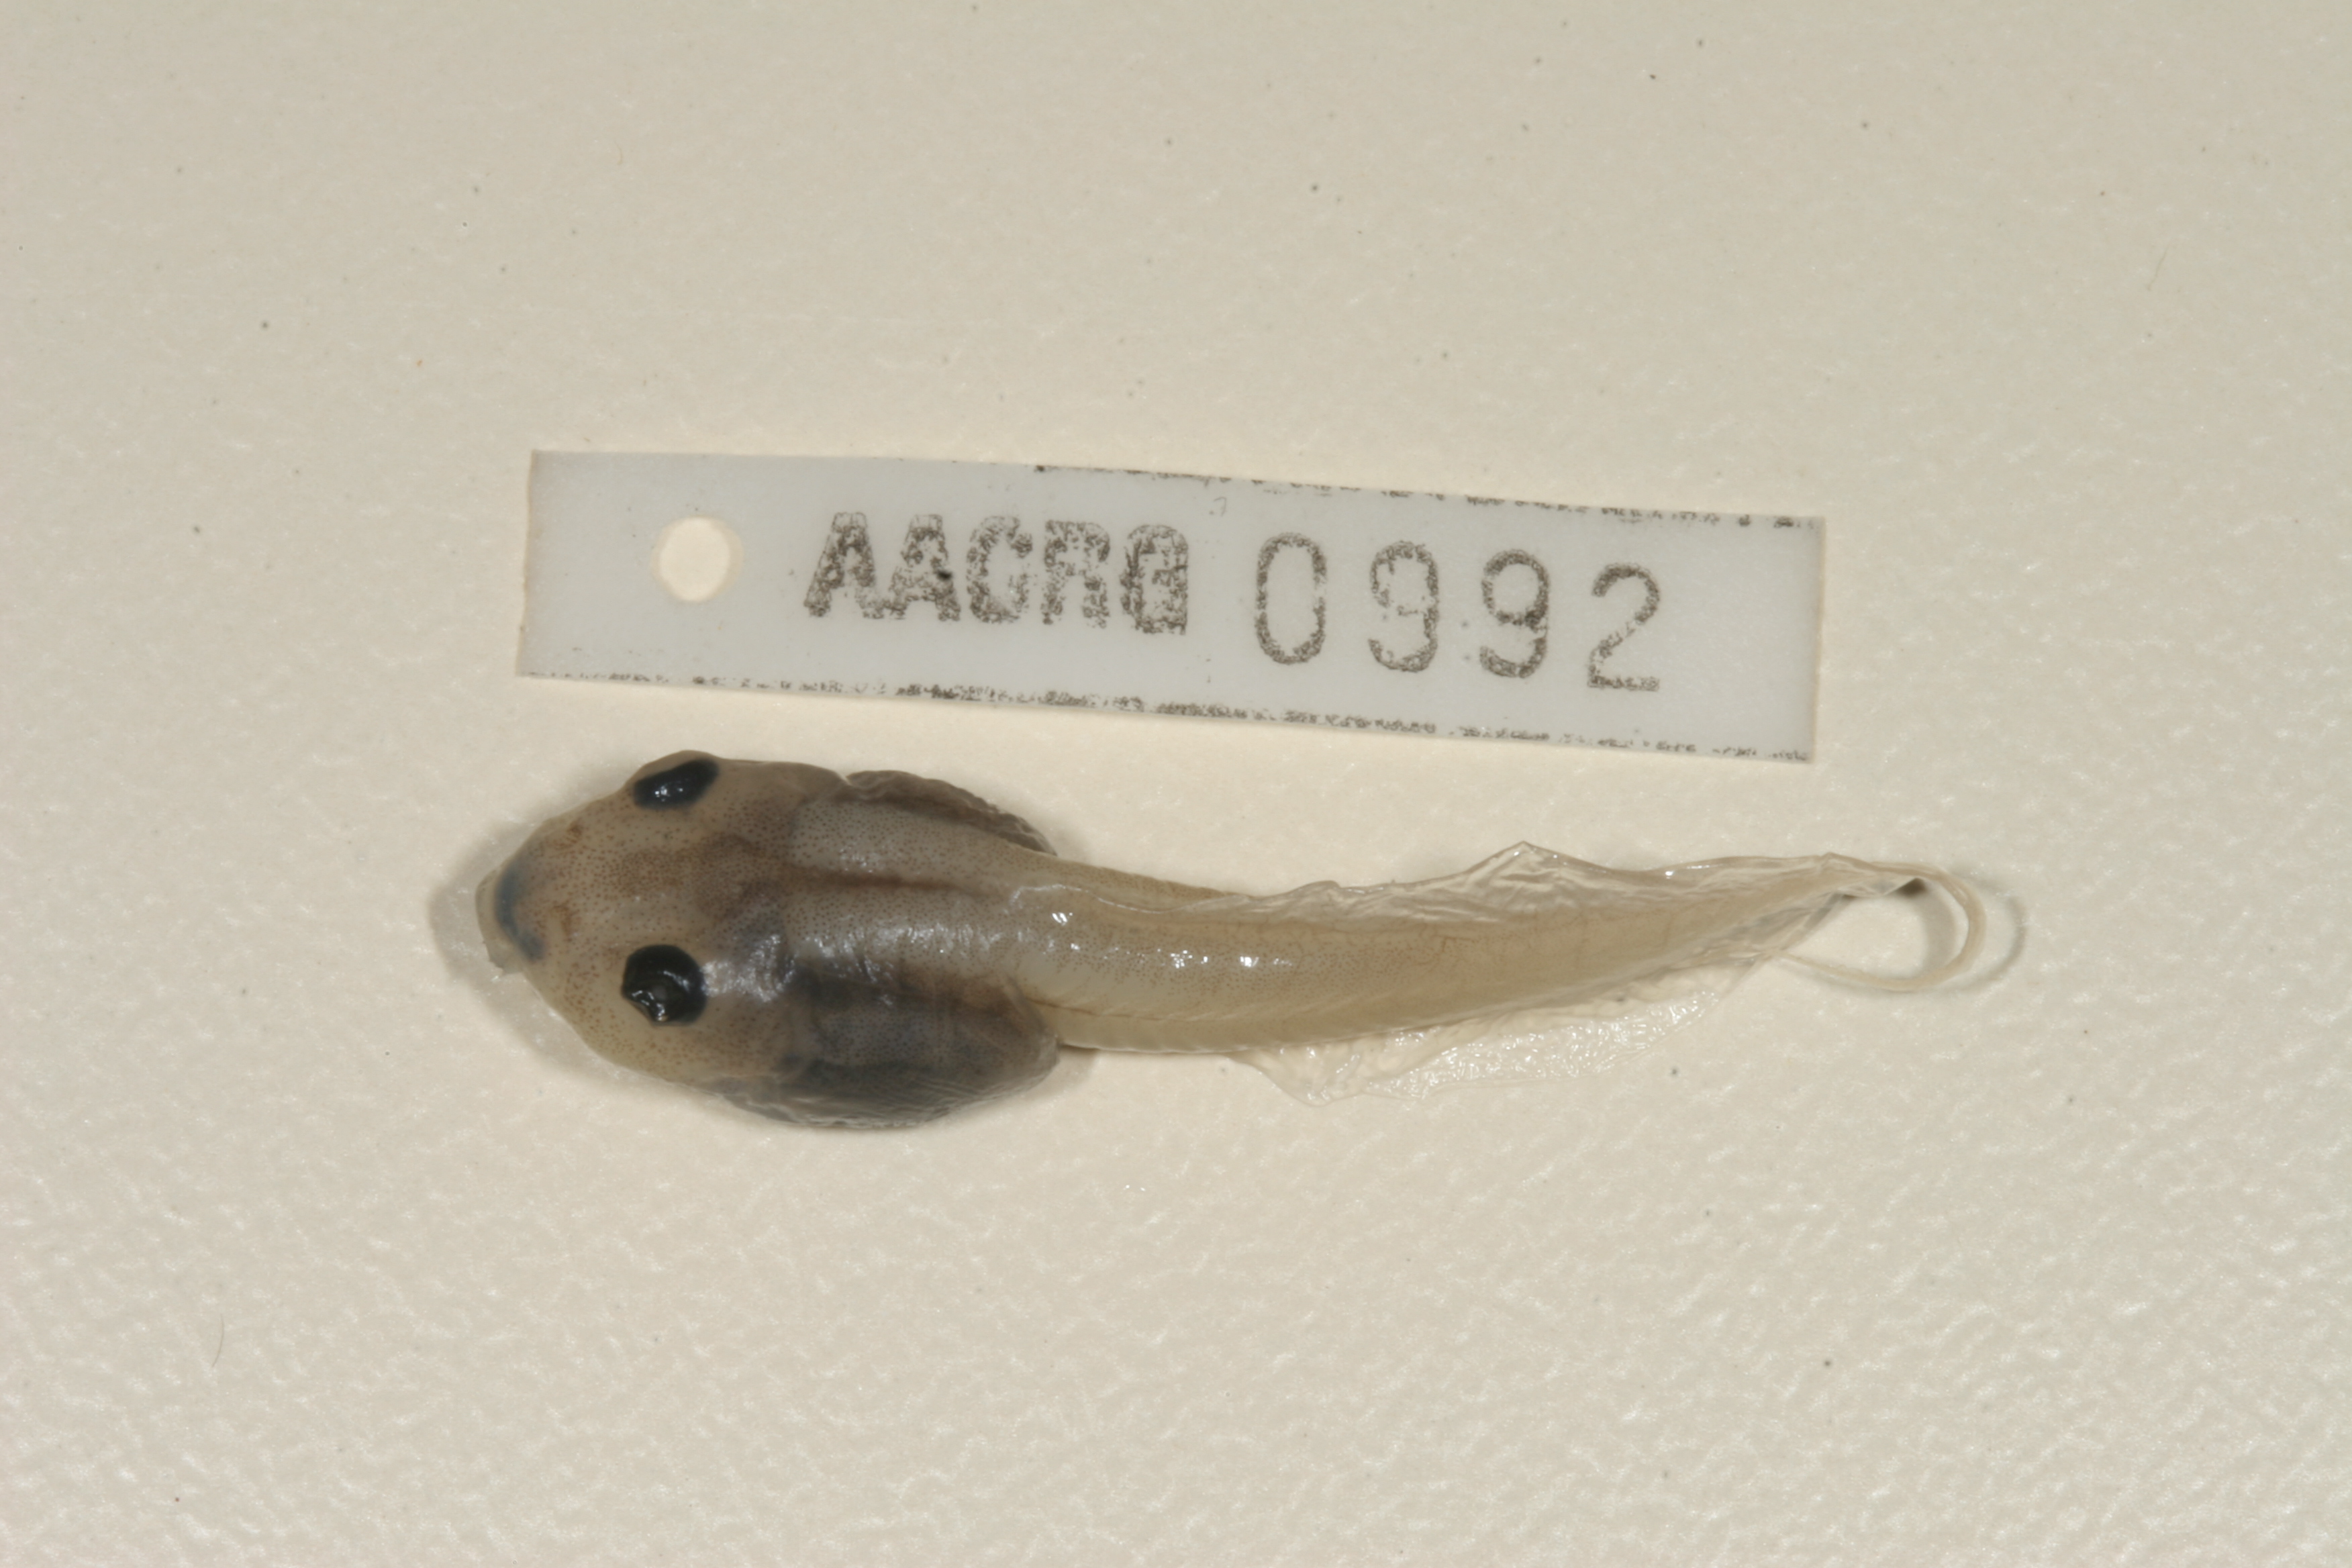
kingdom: Animalia
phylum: Chordata
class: Amphibia
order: Anura
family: Ptychadenidae
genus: Hildebrandtia
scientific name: Hildebrandtia ornata
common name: Ornate frog
